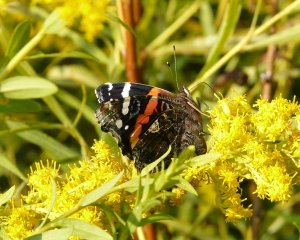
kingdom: Animalia
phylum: Arthropoda
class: Insecta
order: Lepidoptera
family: Nymphalidae
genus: Vanessa
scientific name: Vanessa atalanta
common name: Red Admiral
